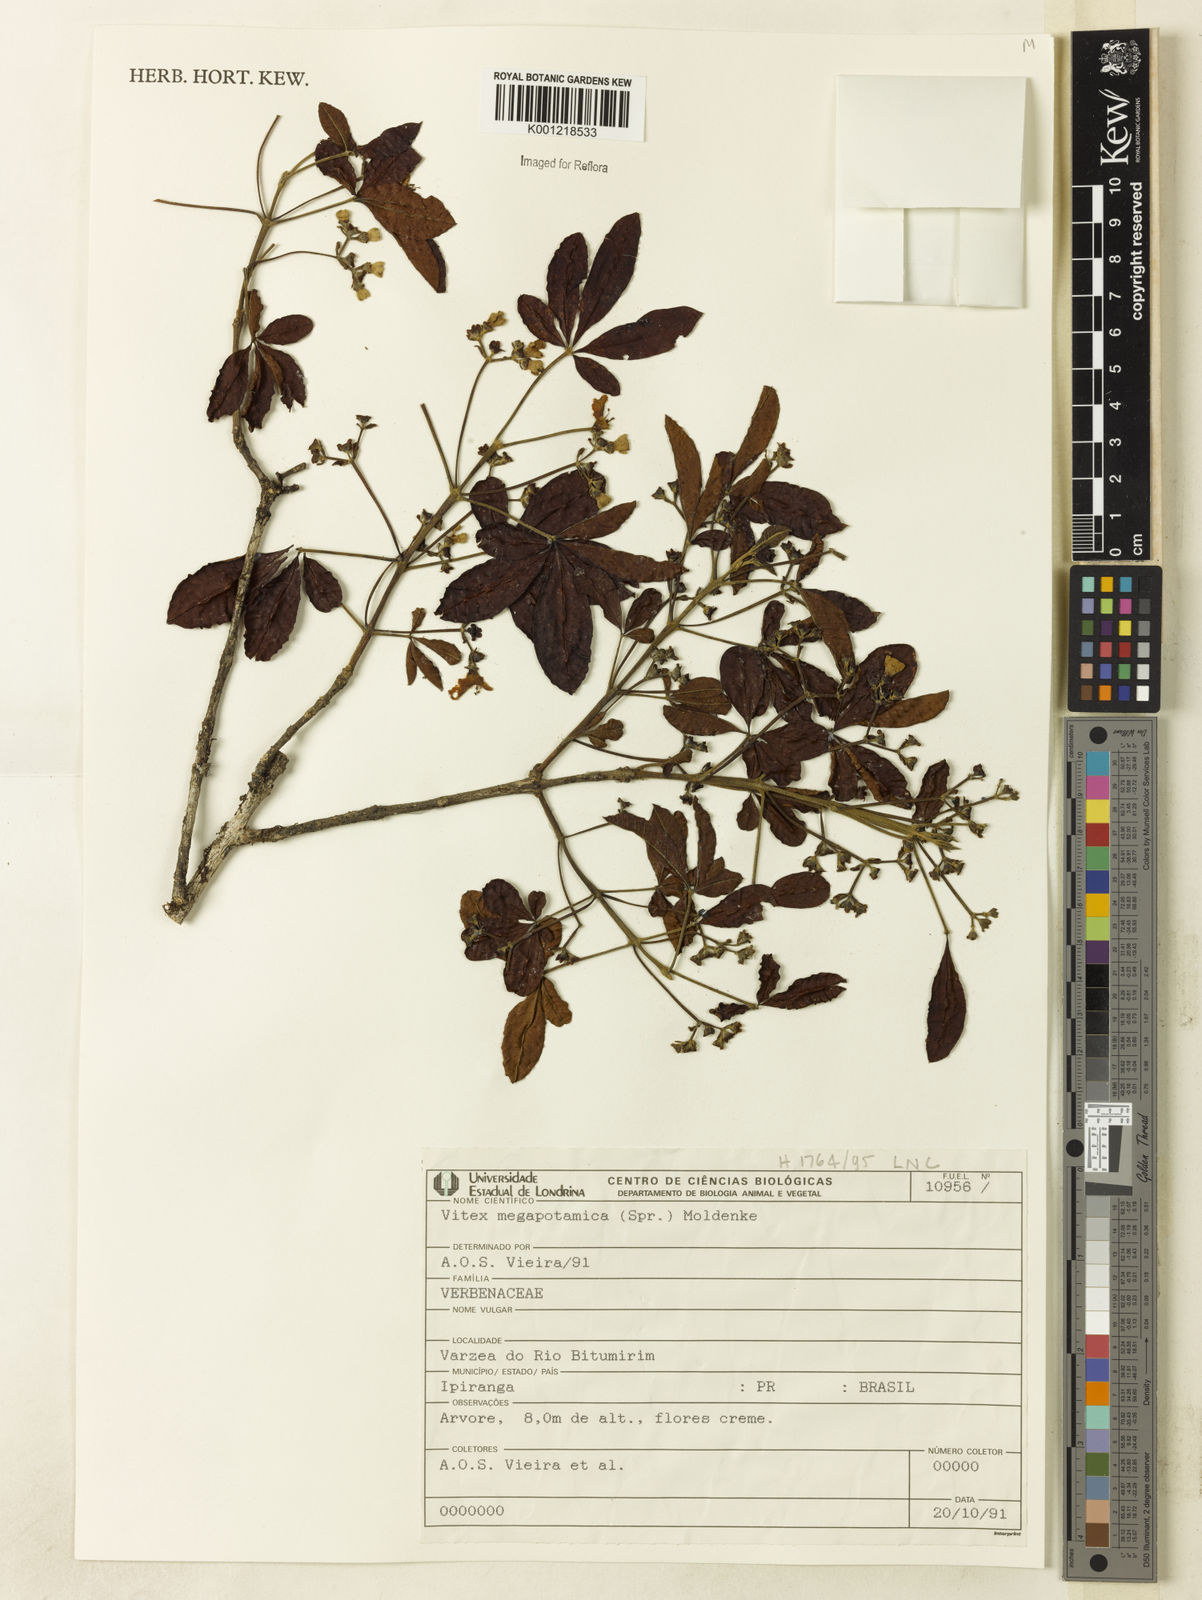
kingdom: Plantae
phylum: Tracheophyta
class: Magnoliopsida
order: Lamiales
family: Lamiaceae
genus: Vitex
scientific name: Vitex megapotamica
